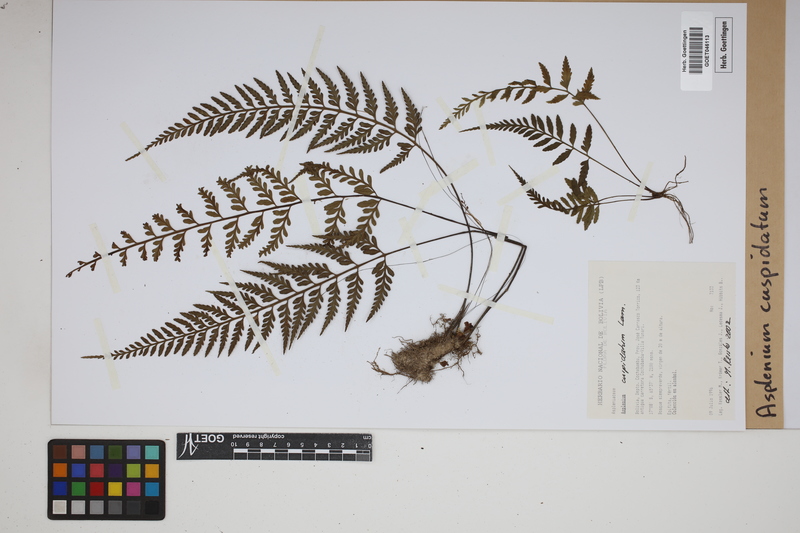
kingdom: Plantae
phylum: Tracheophyta
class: Polypodiopsida
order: Polypodiales
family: Aspleniaceae
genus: Asplenium
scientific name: Asplenium cuspidatum
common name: Eared spleenwort
